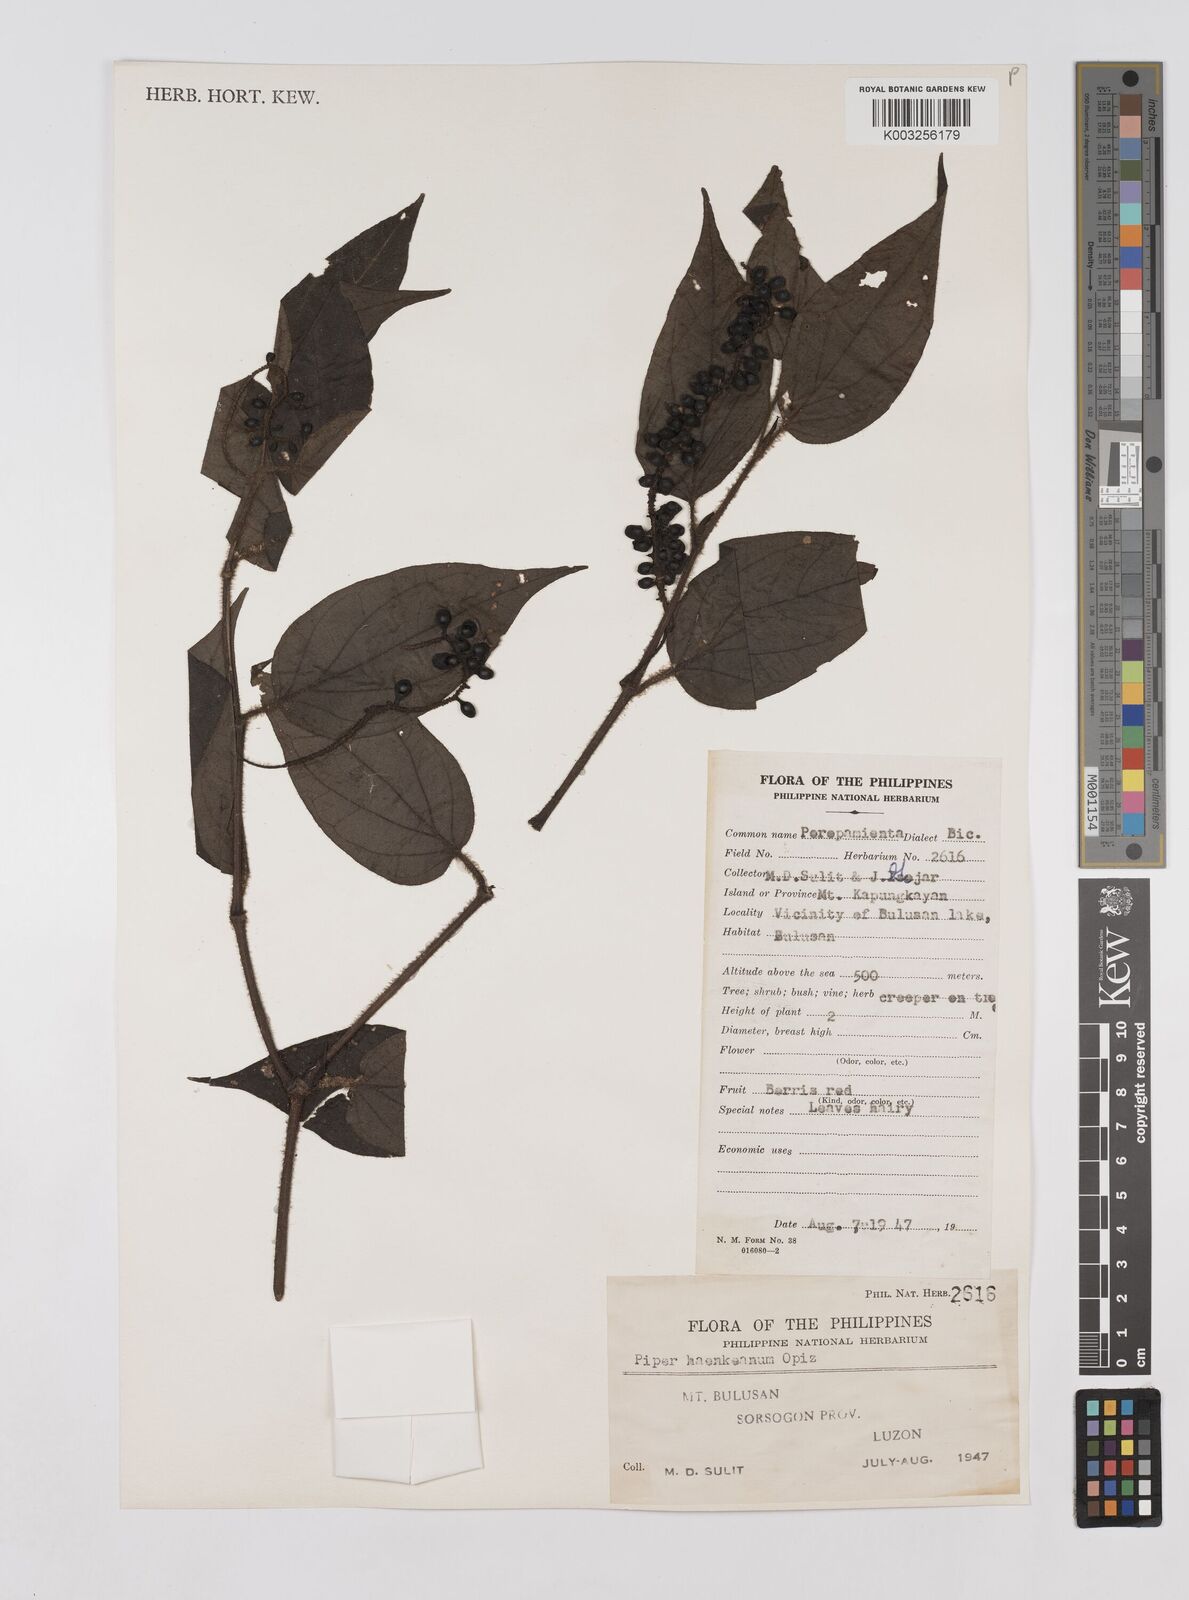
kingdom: Plantae
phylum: Tracheophyta
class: Magnoliopsida
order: Piperales
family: Piperaceae
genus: Piper
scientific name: Piper lanatum
